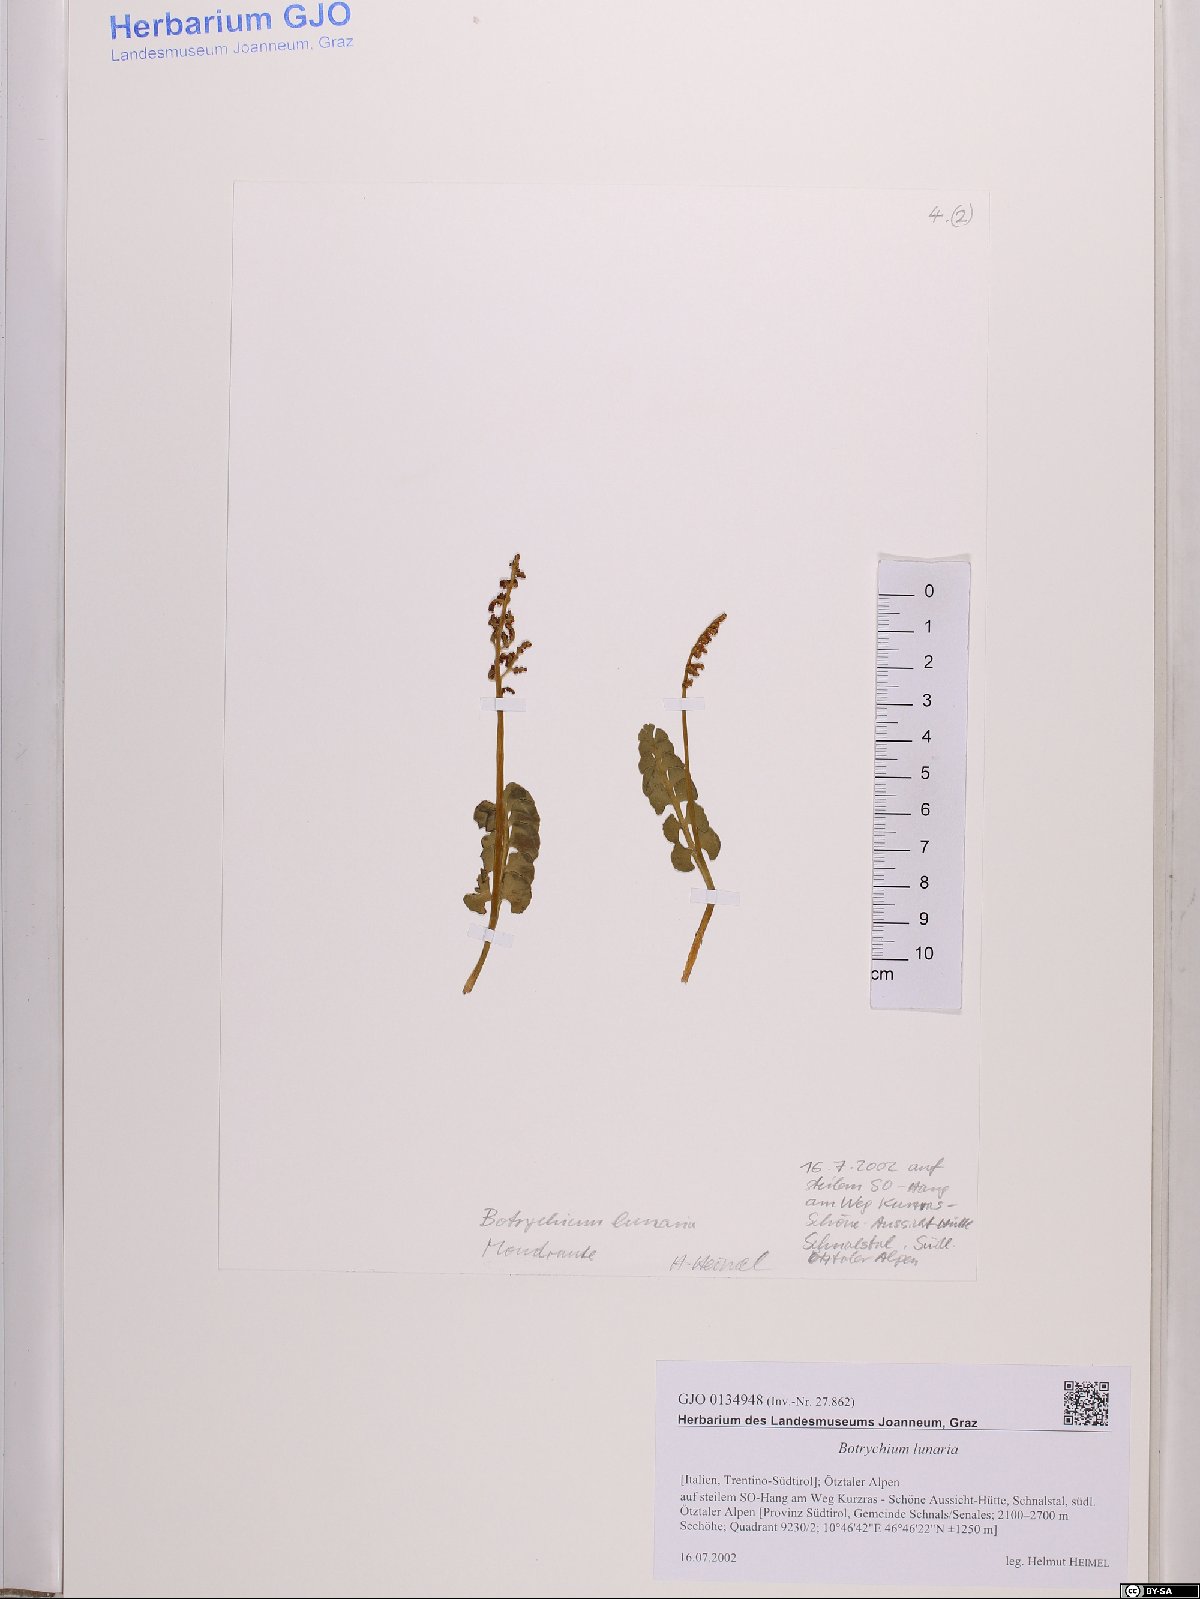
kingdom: Plantae
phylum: Tracheophyta
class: Polypodiopsida
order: Ophioglossales
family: Ophioglossaceae
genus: Botrychium
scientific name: Botrychium lunaria
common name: Moonwort
